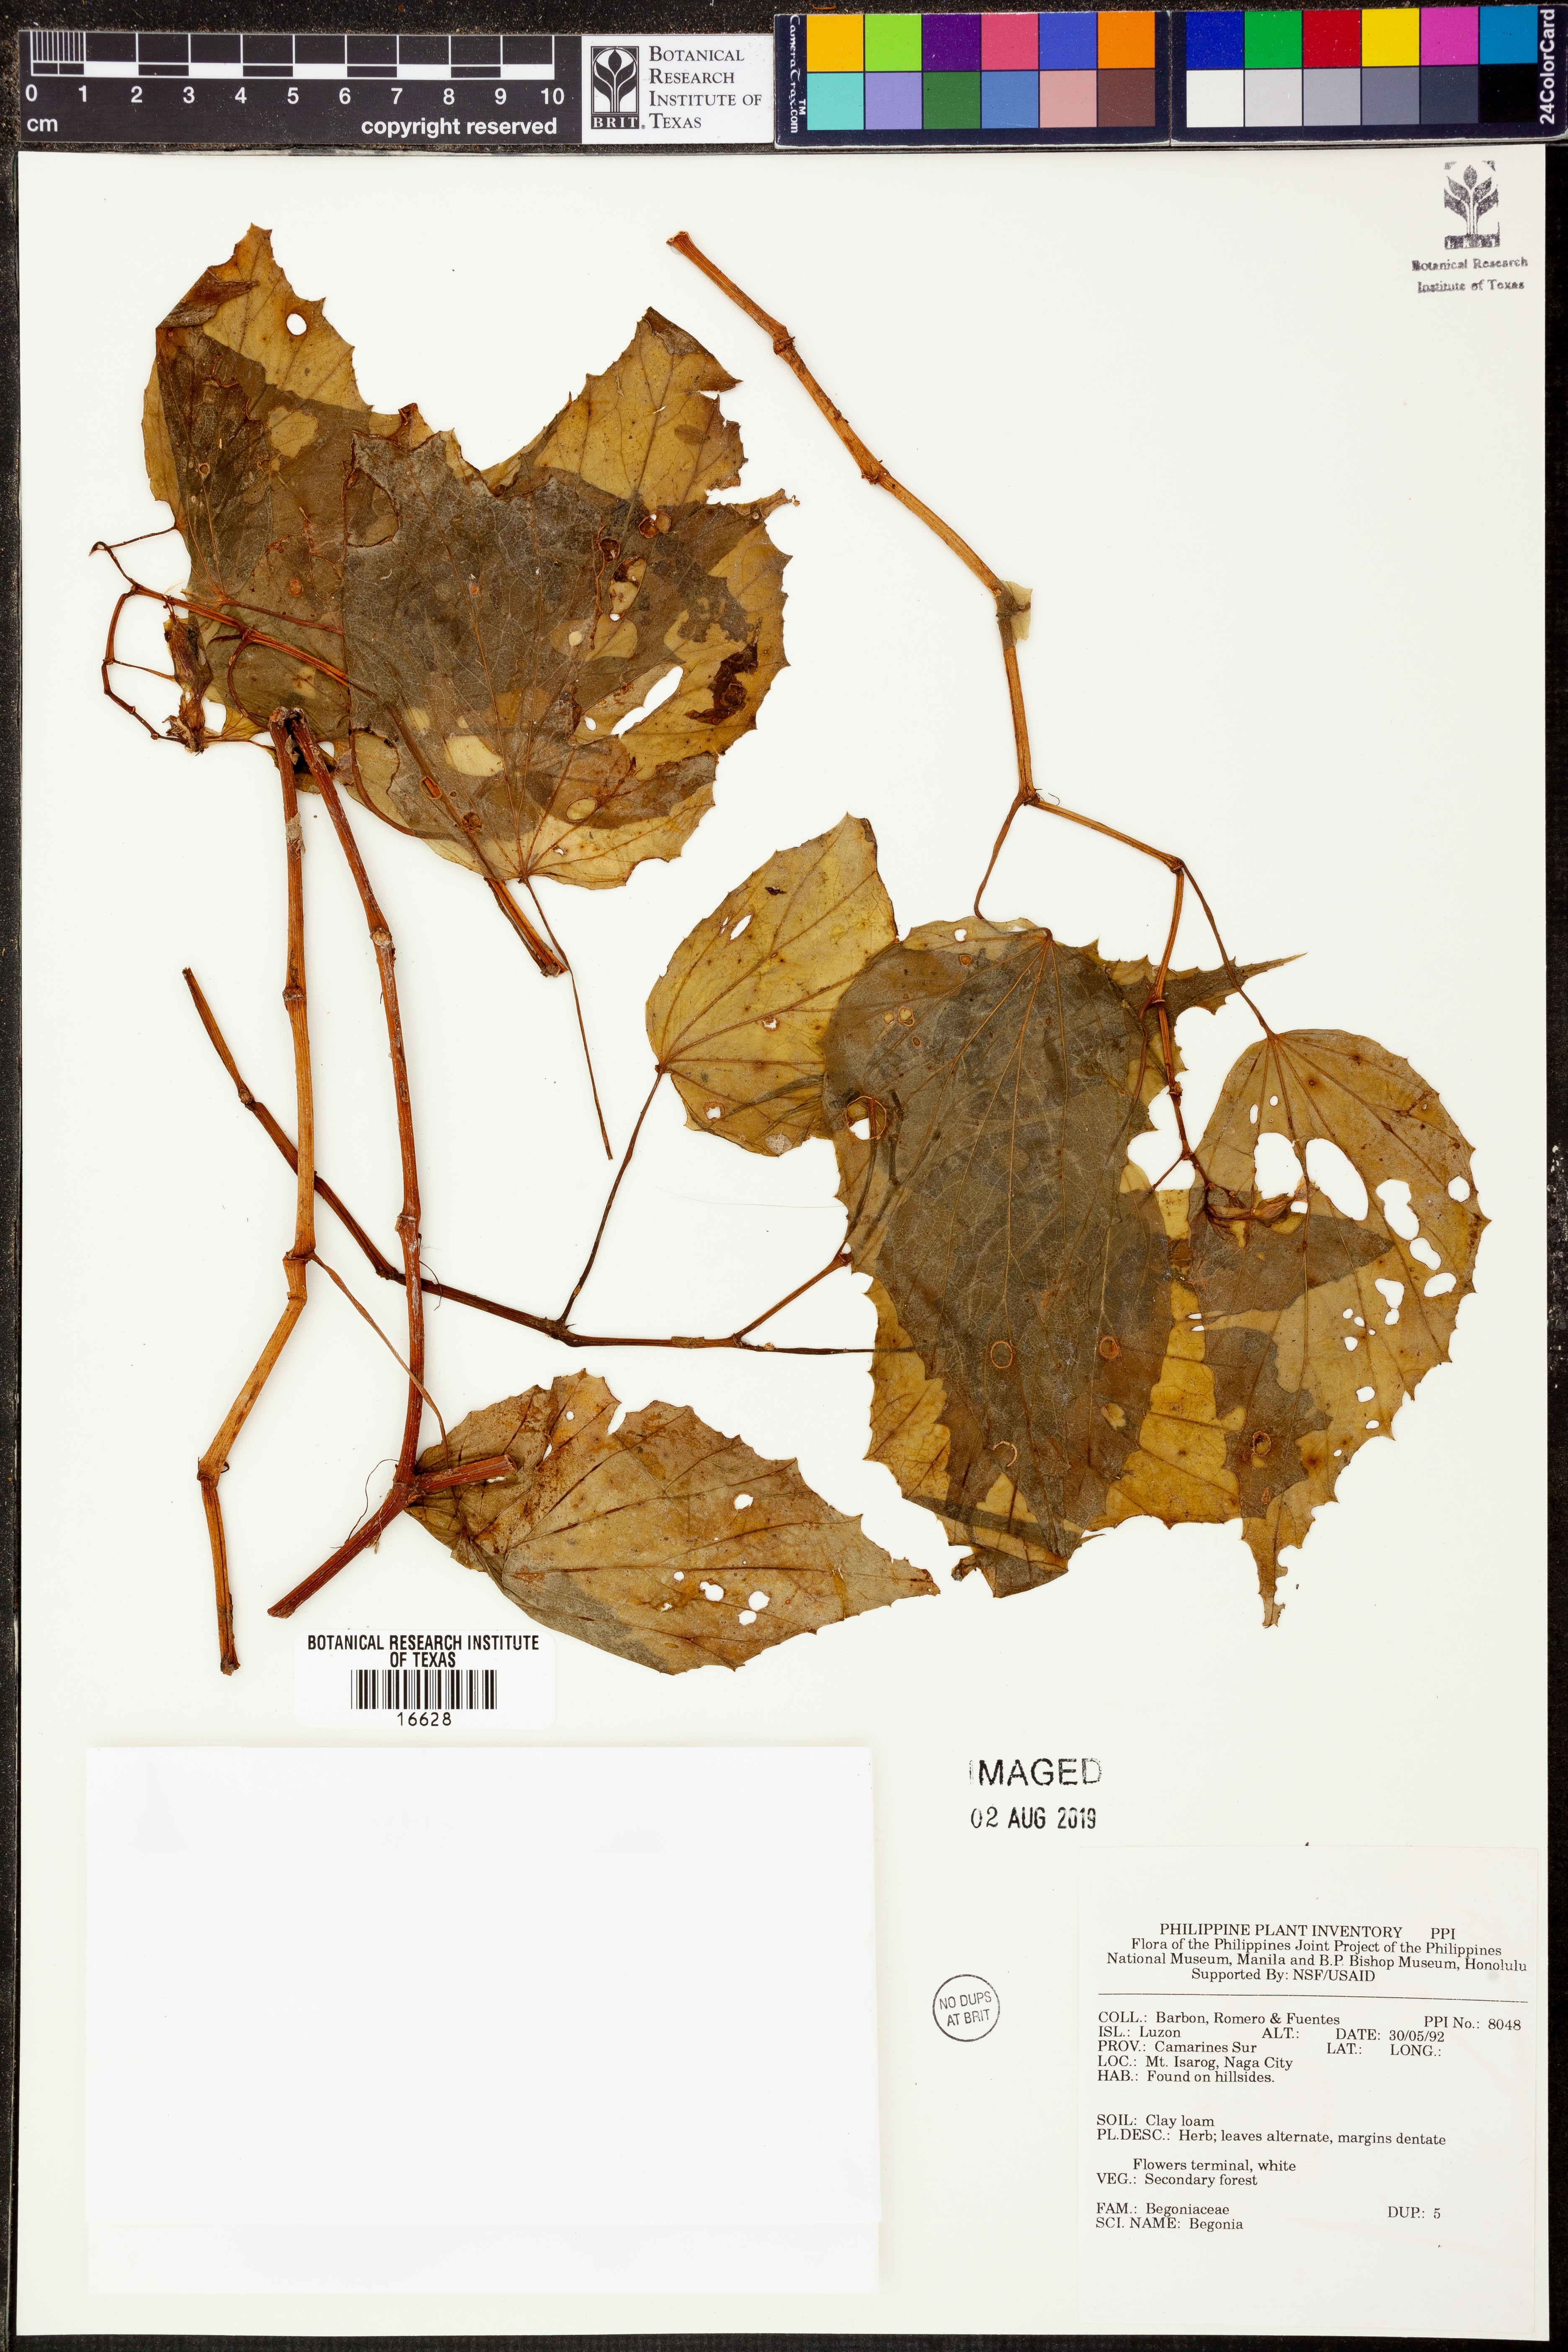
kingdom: Plantae
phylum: Tracheophyta
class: Magnoliopsida
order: Cucurbitales
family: Begoniaceae
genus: Begonia
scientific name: Begonia
